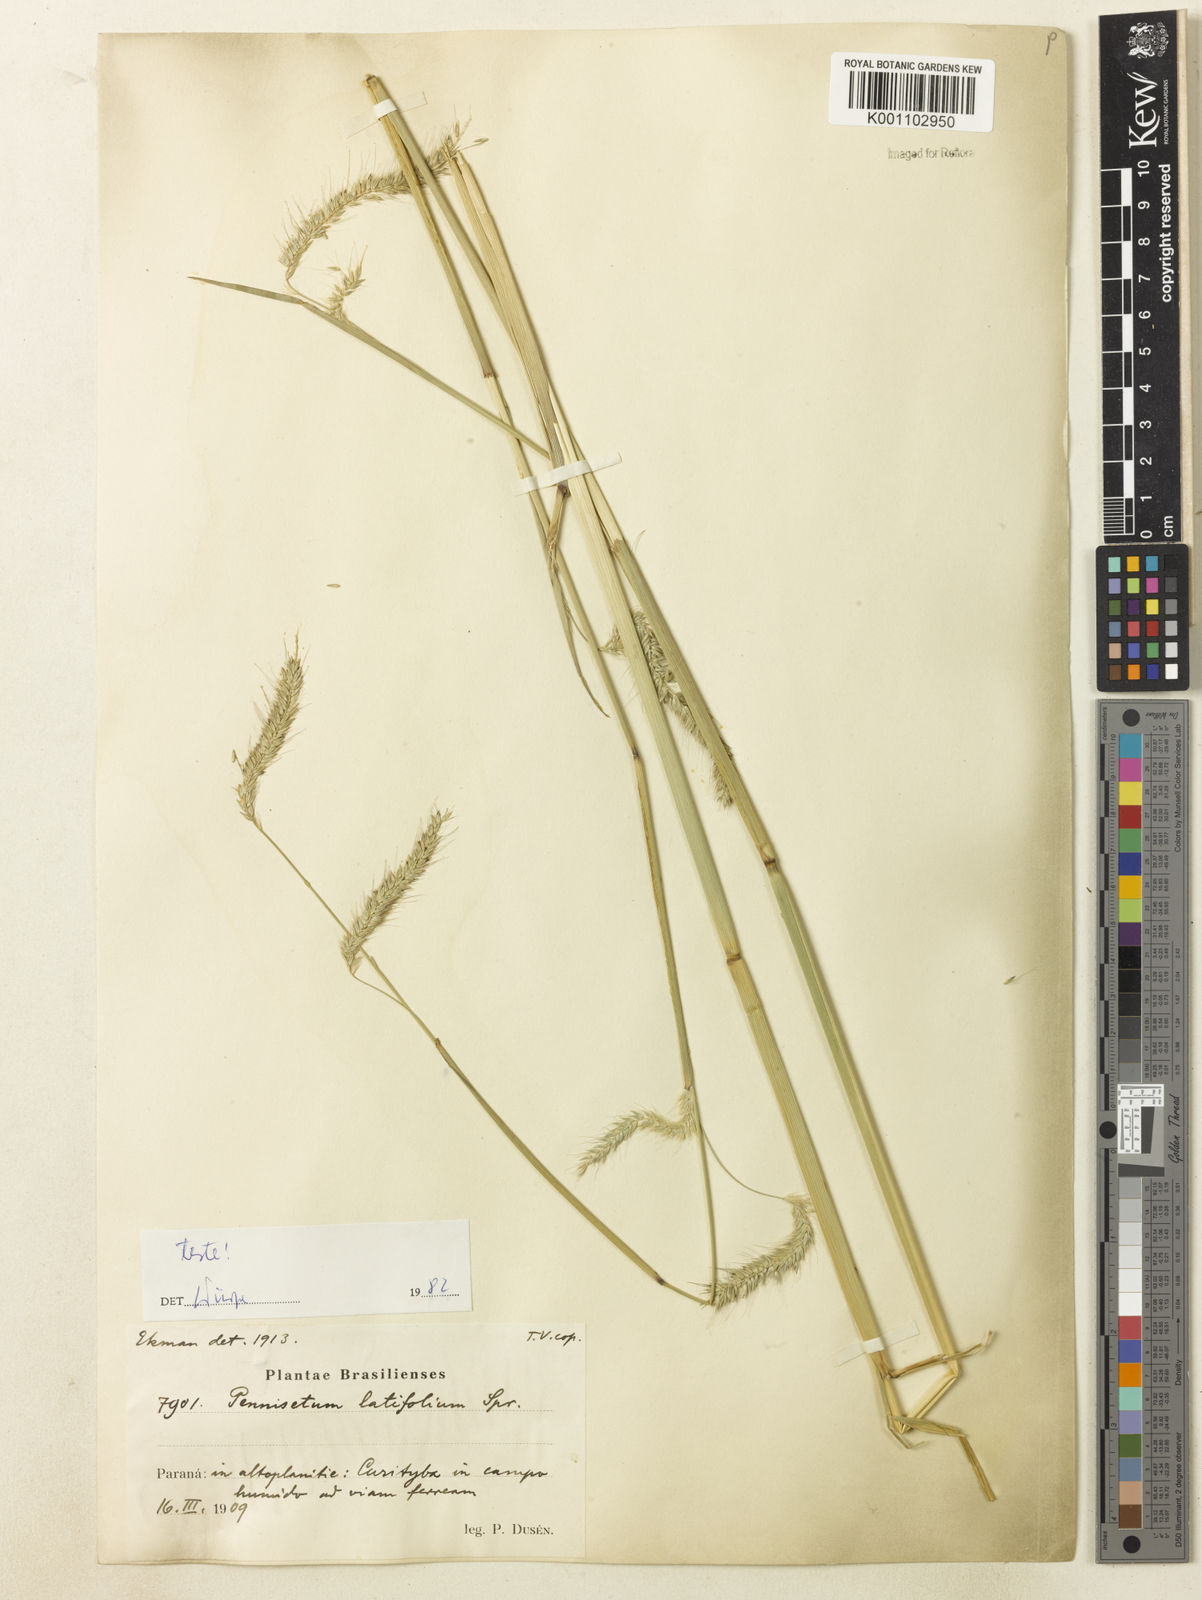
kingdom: Plantae
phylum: Tracheophyta
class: Liliopsida
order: Poales
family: Poaceae
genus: Cenchrus
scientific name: Cenchrus latifolius
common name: Sandbur
